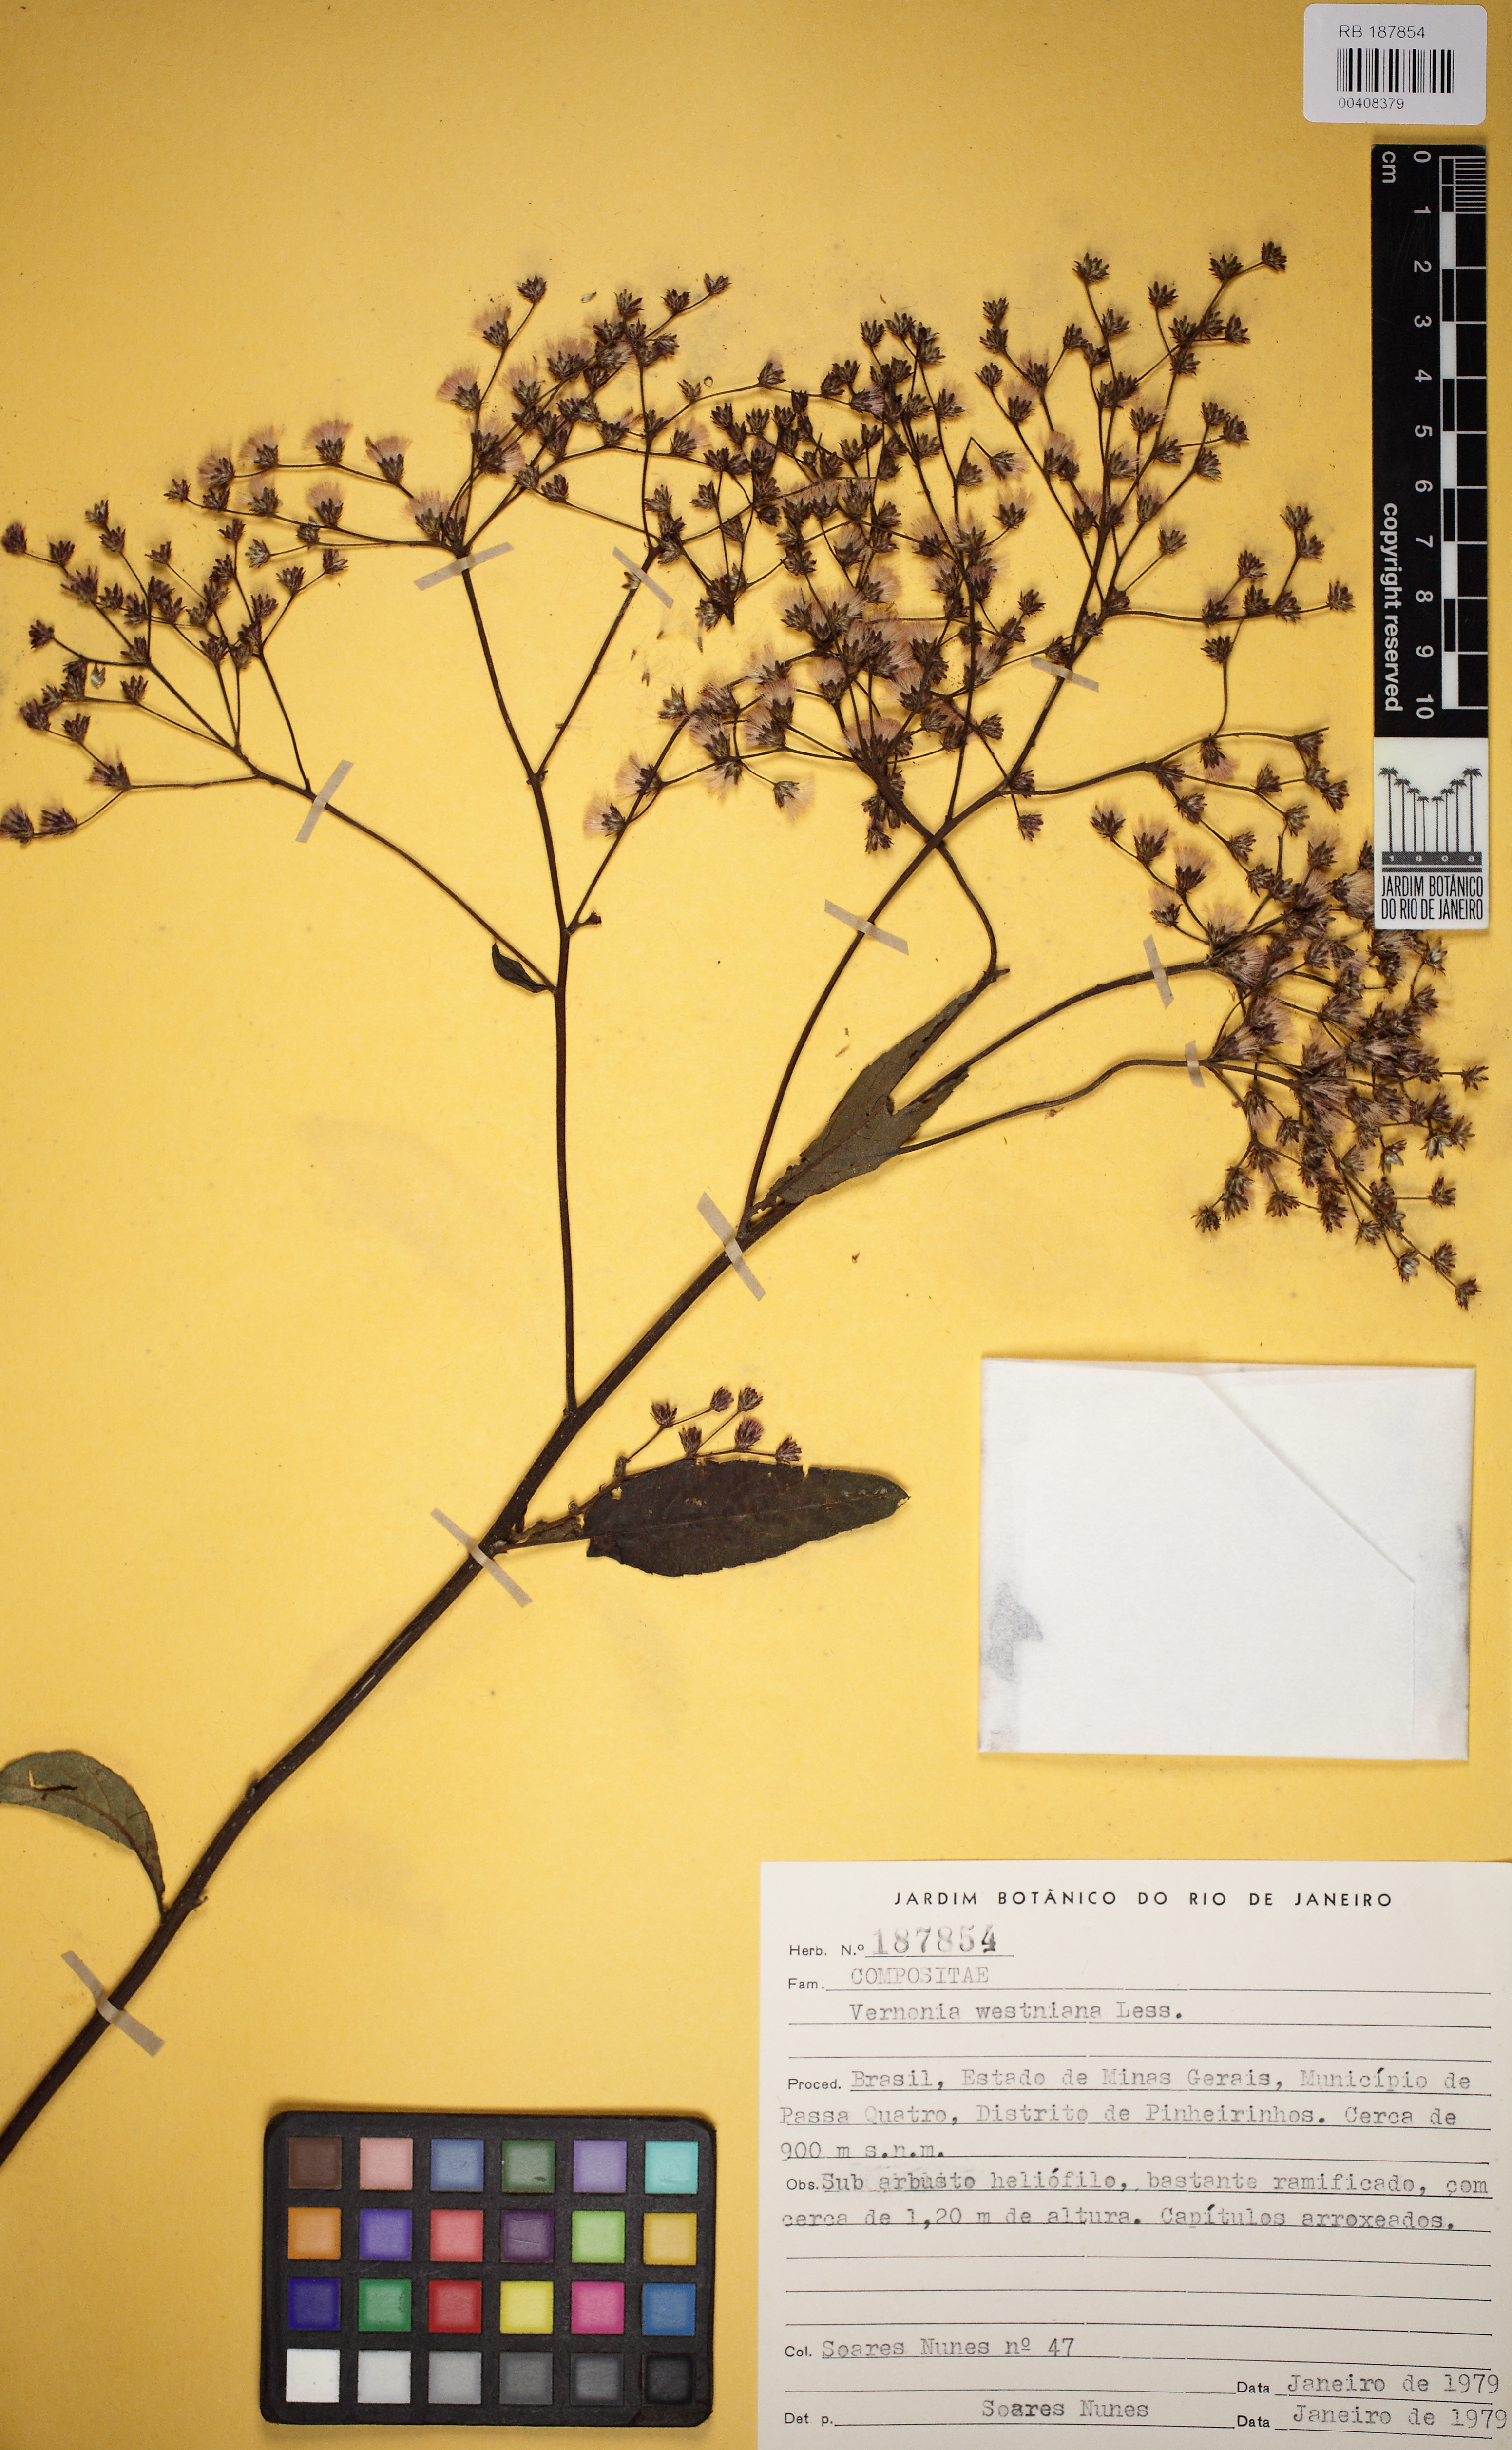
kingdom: Plantae
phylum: Tracheophyta
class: Magnoliopsida
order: Asterales
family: Asteraceae
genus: Vernonanthura
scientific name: Vernonanthura westiniana
